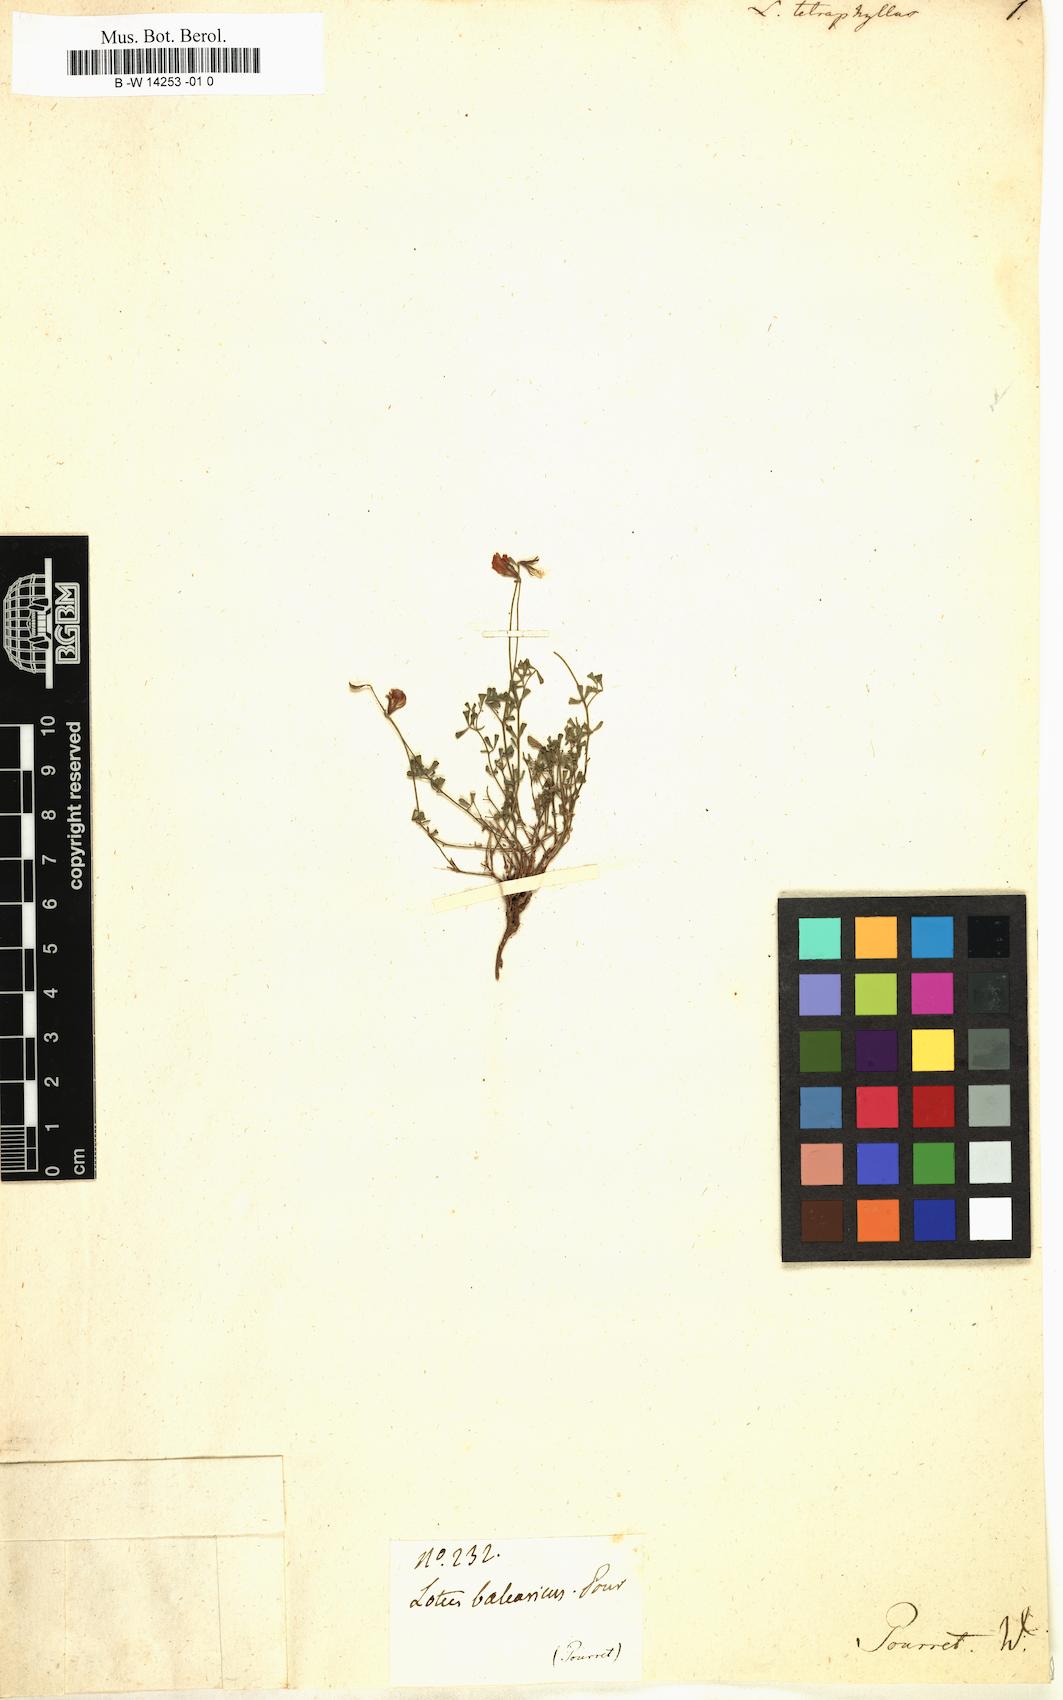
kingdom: Plantae
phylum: Tracheophyta
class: Magnoliopsida
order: Fabales
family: Fabaceae
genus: Lotus
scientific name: Lotus tetraphyllus
